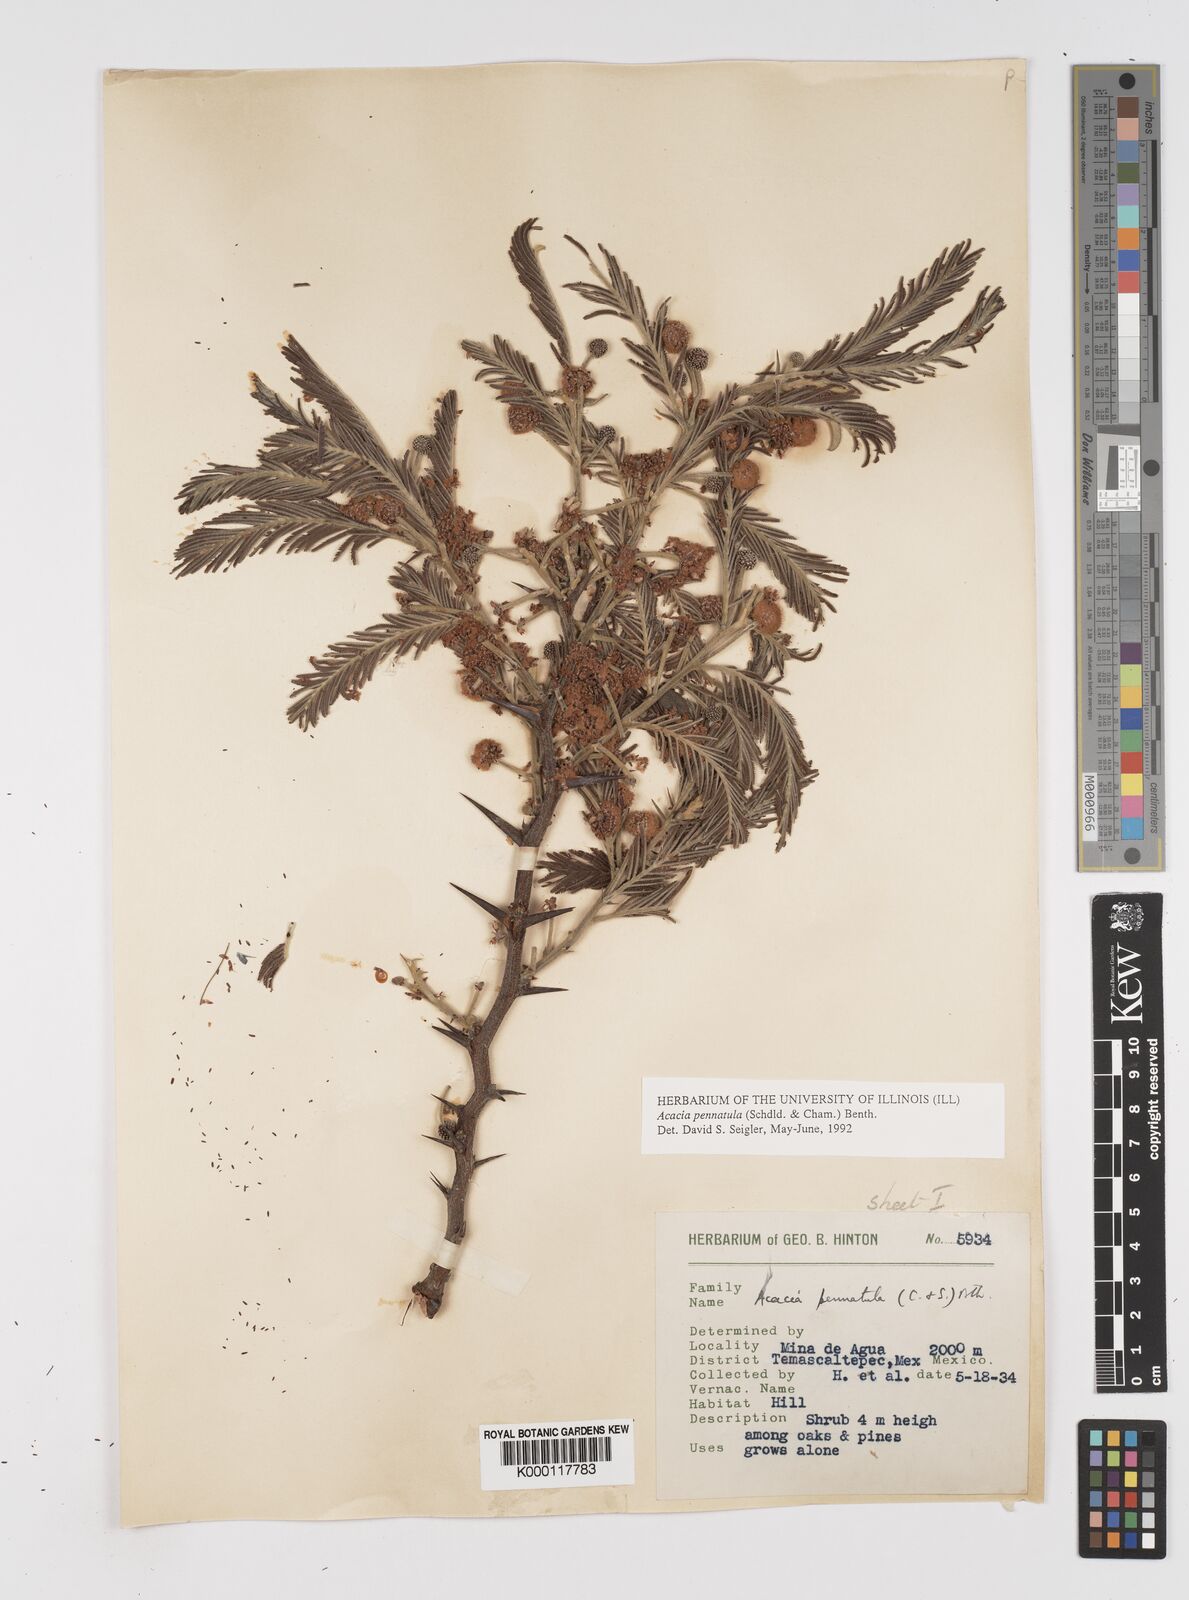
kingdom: Plantae
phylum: Tracheophyta
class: Magnoliopsida
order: Fabales
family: Fabaceae
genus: Vachellia
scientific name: Vachellia pennatula
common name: Fern-leaf acacia
